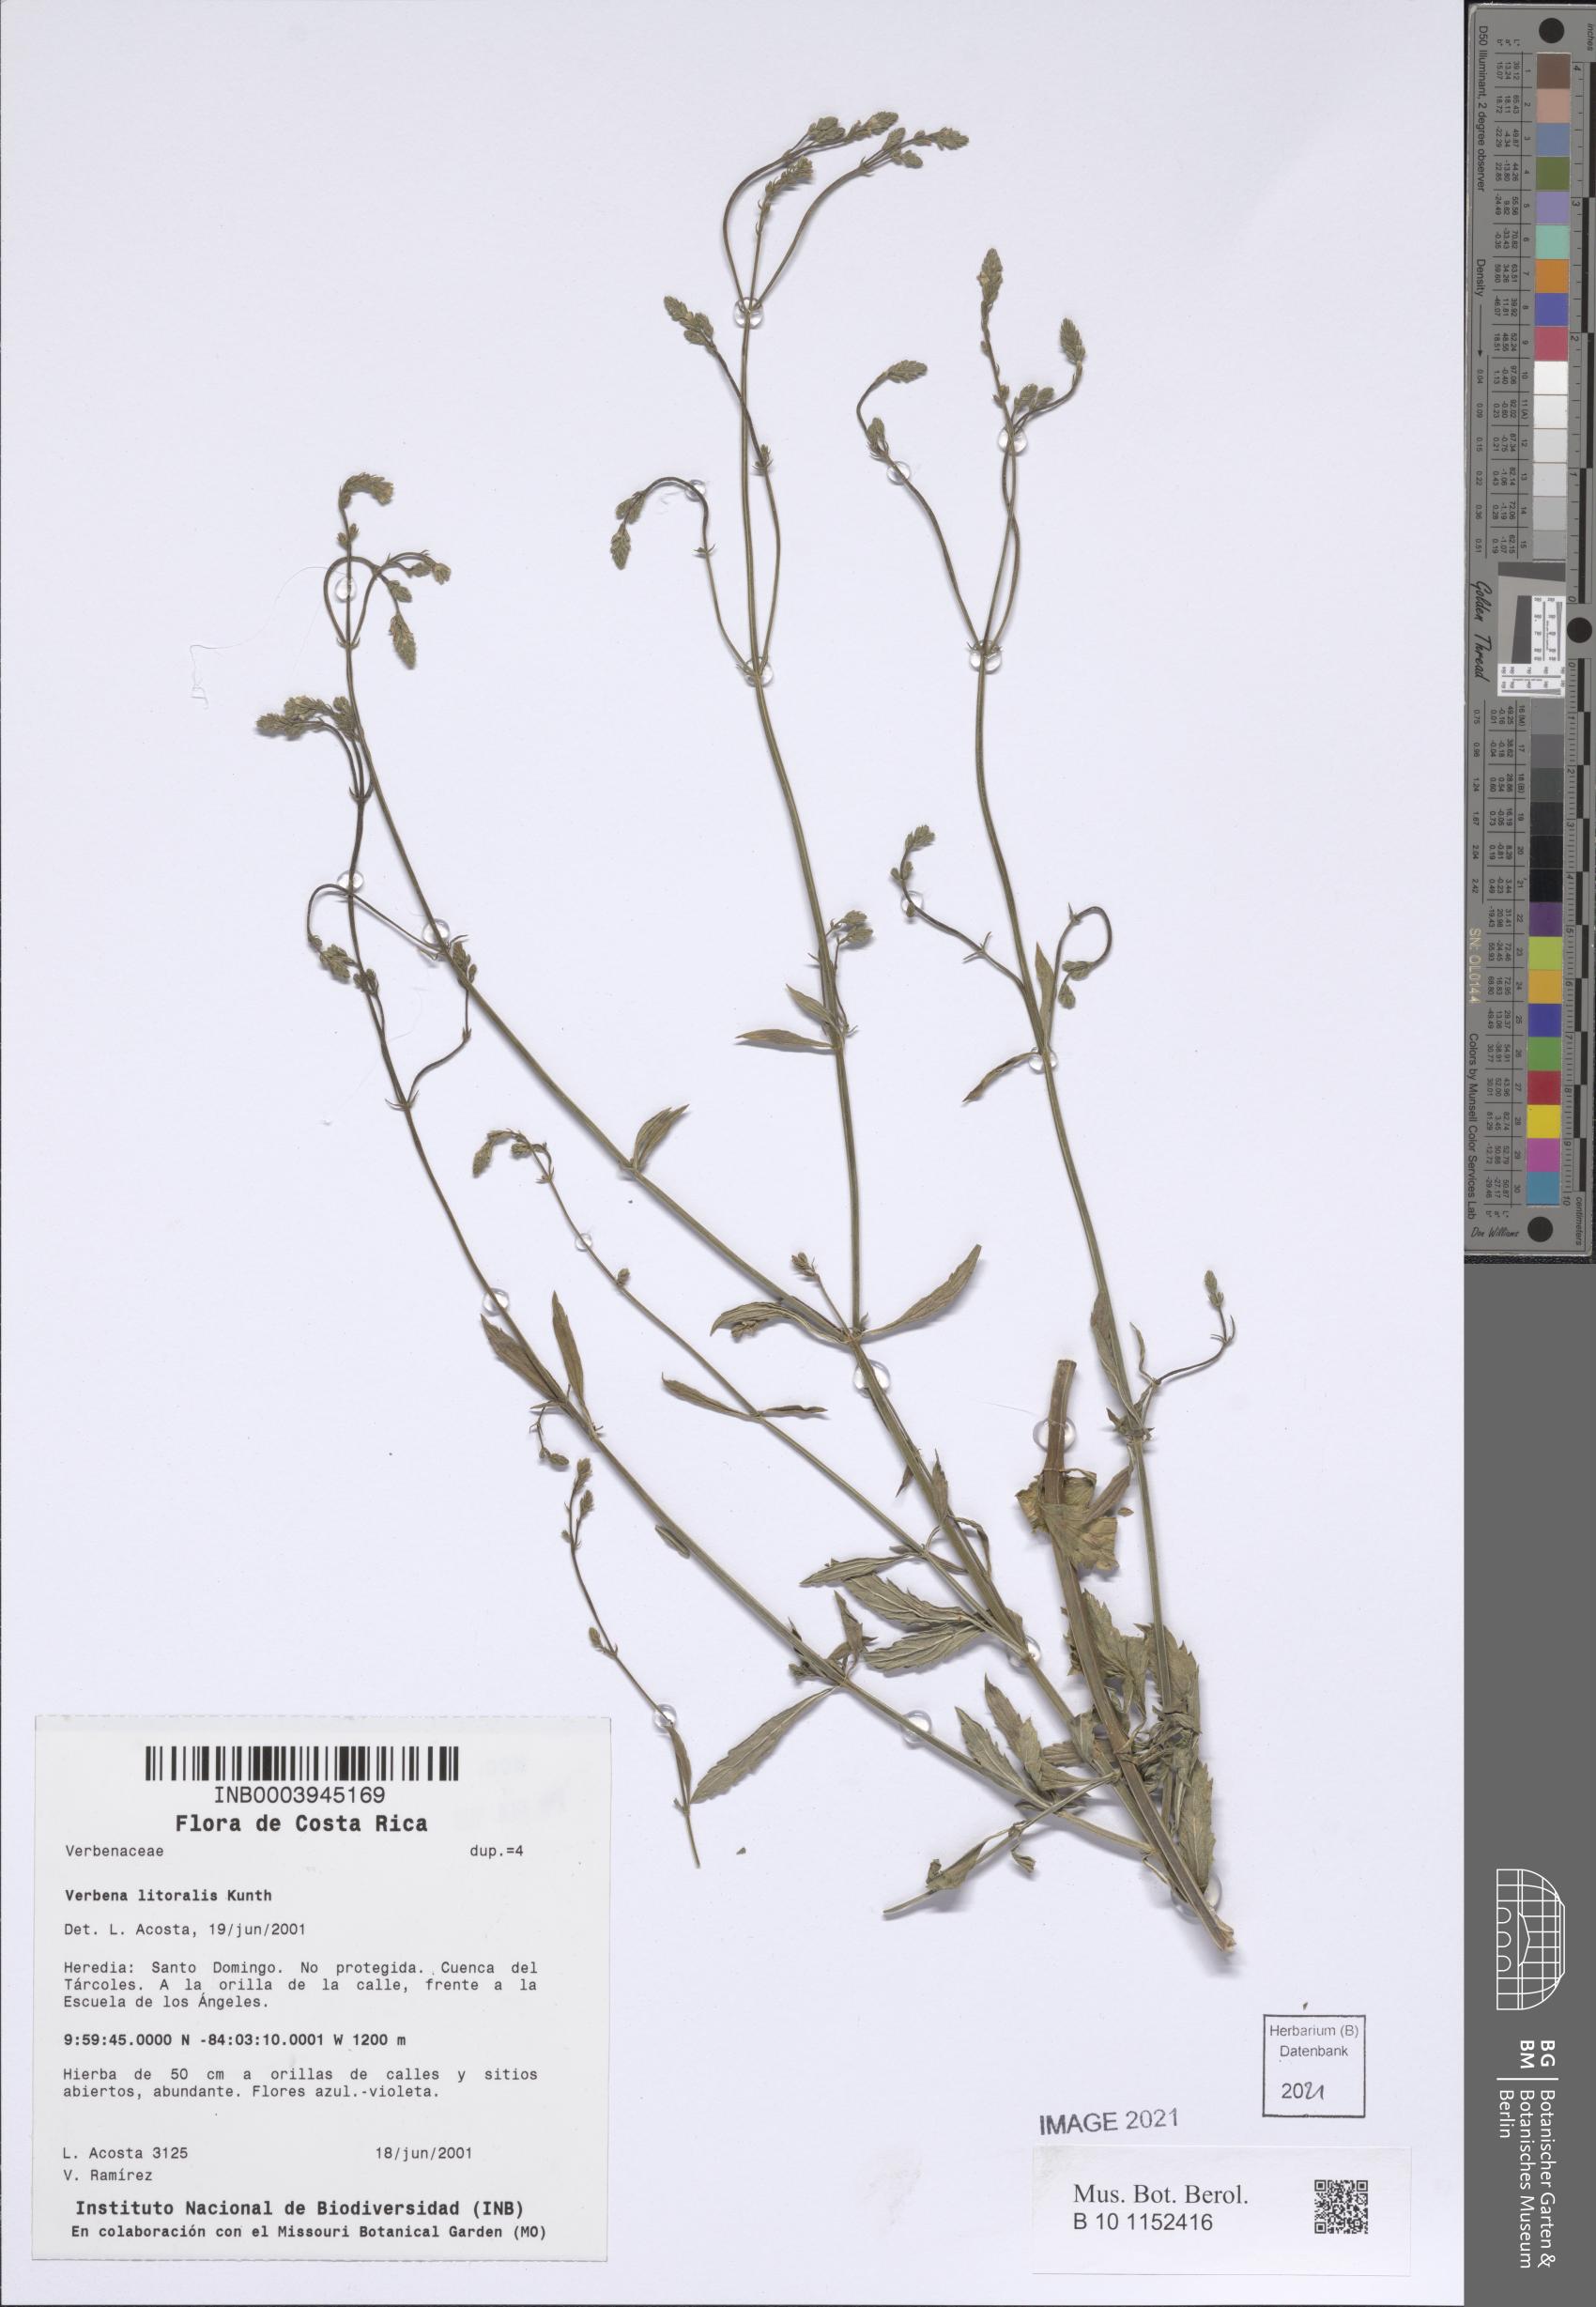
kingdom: Plantae
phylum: Tracheophyta
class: Magnoliopsida
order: Lamiales
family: Verbenaceae
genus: Verbena
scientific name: Verbena litoralis
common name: Seashore vervain
